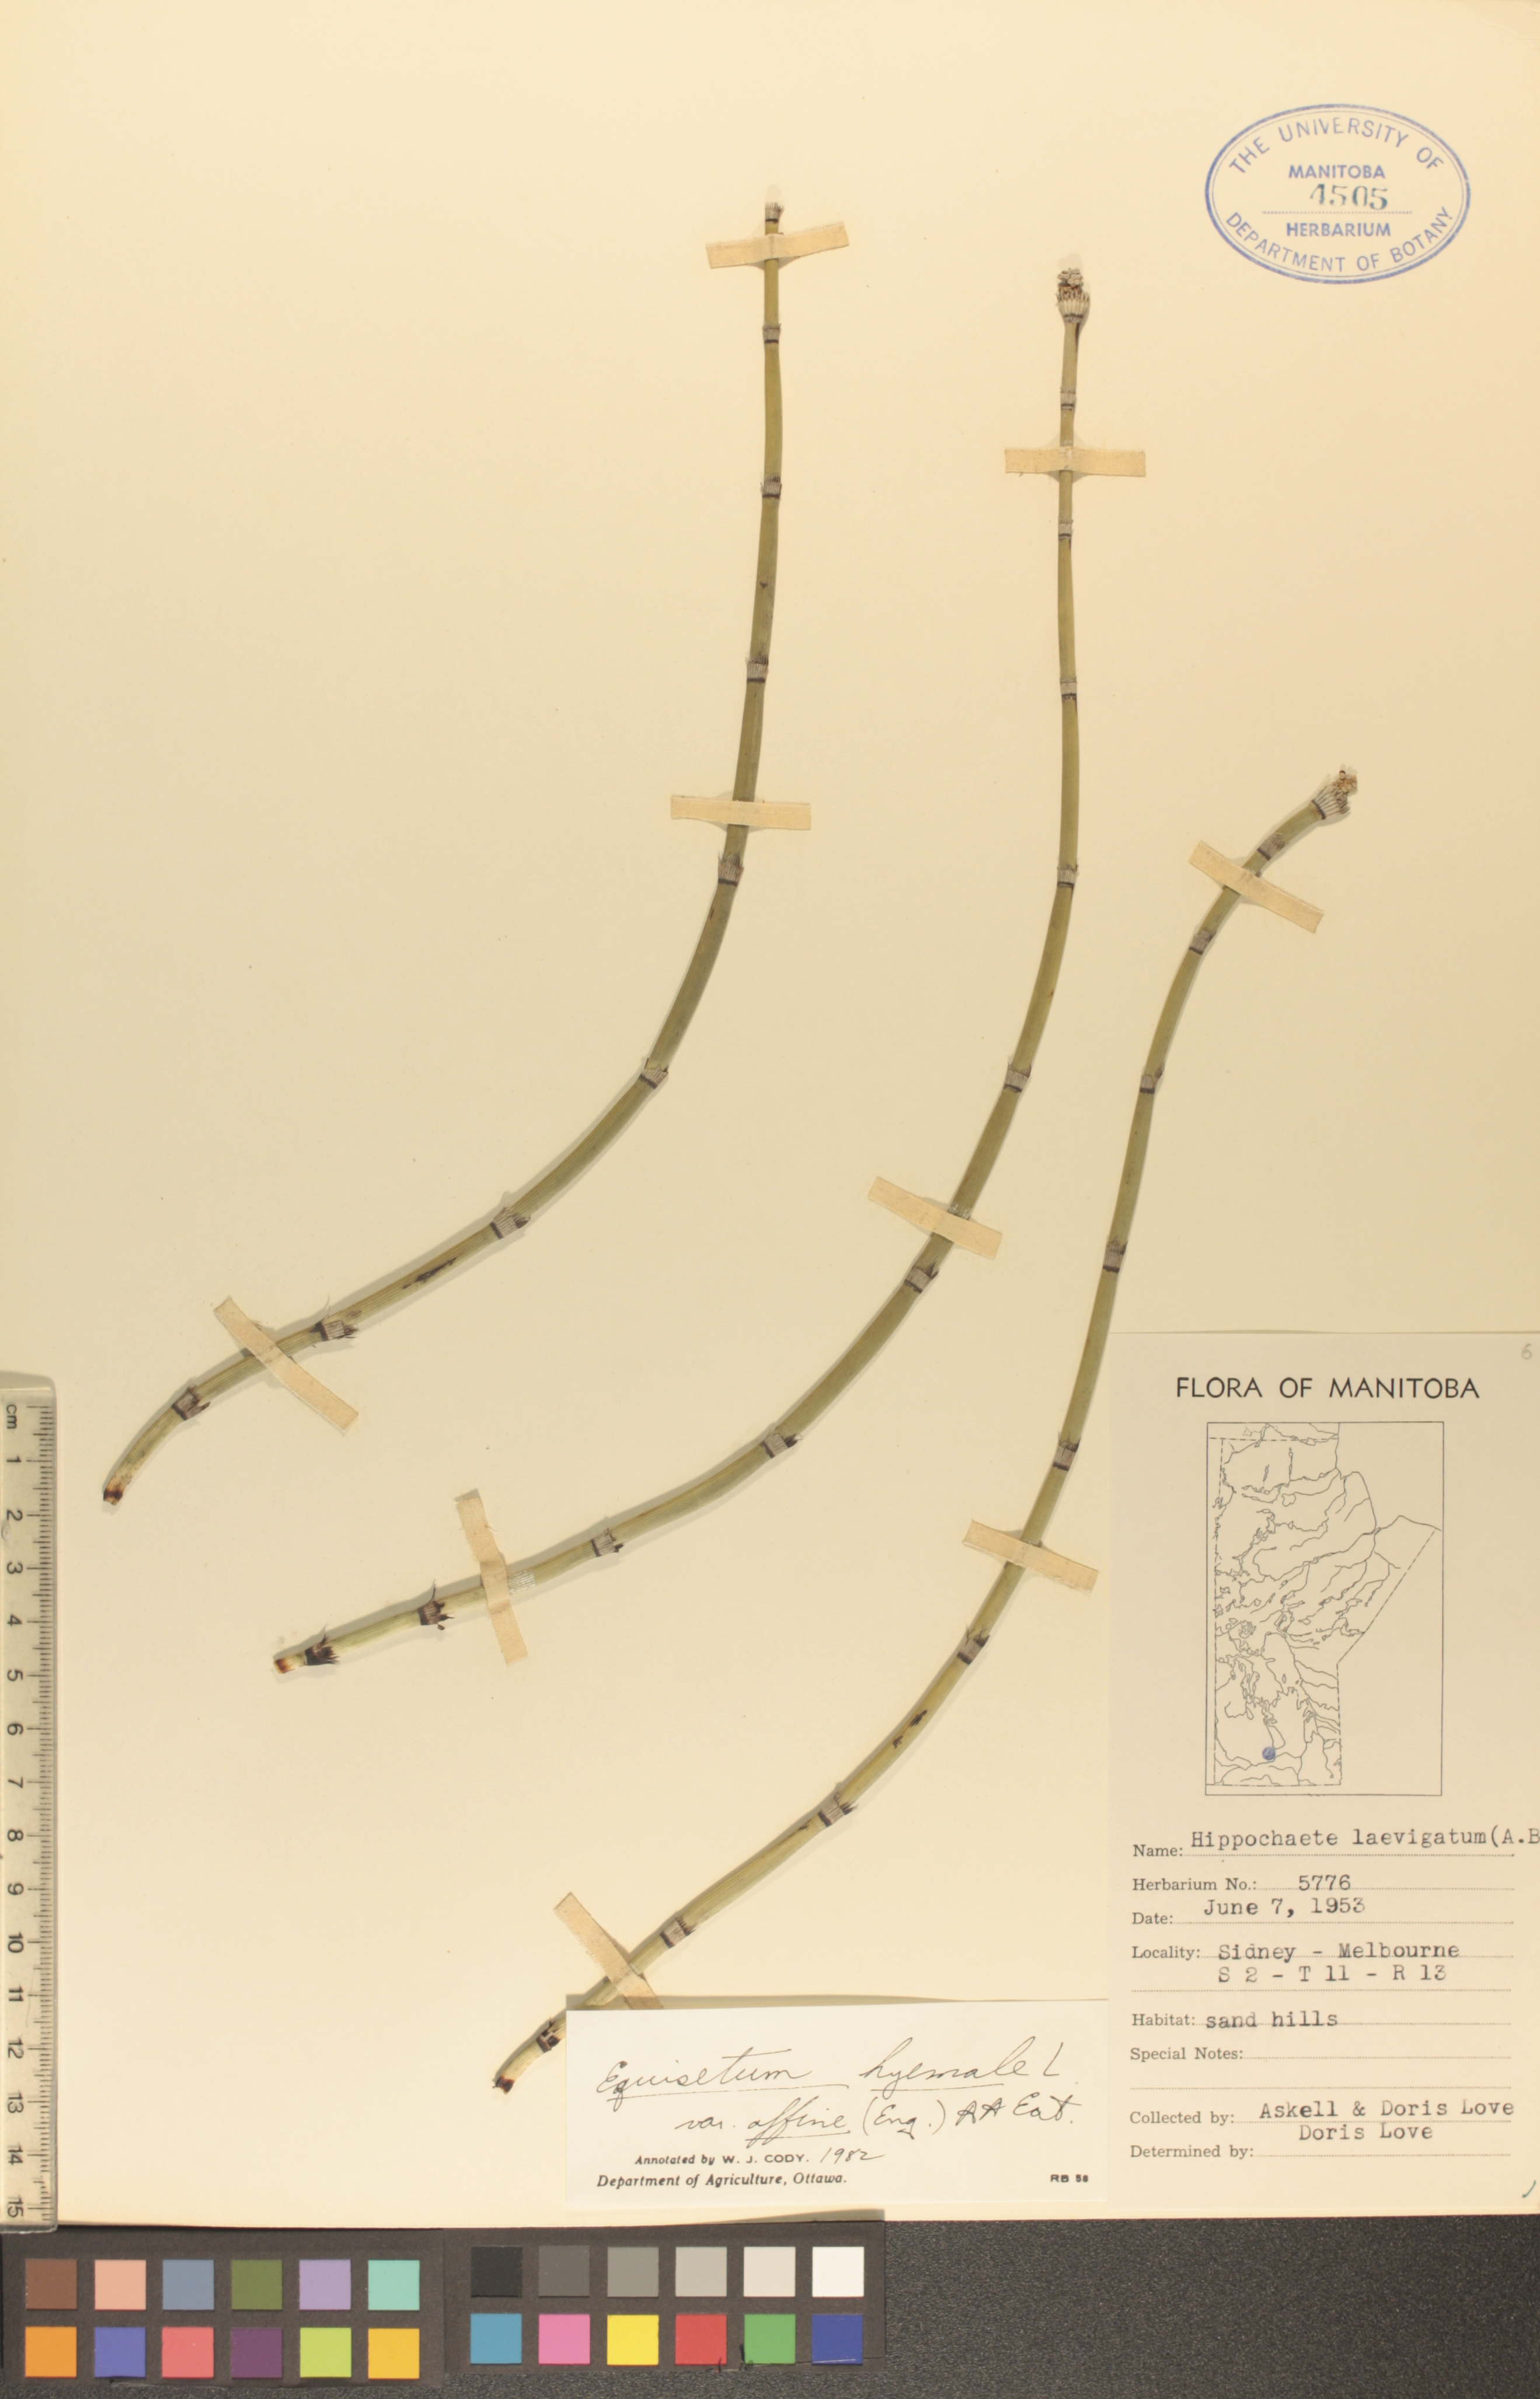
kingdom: Plantae
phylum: Tracheophyta
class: Polypodiopsida
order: Equisetales
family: Equisetaceae
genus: Equisetum
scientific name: Equisetum praealtum
